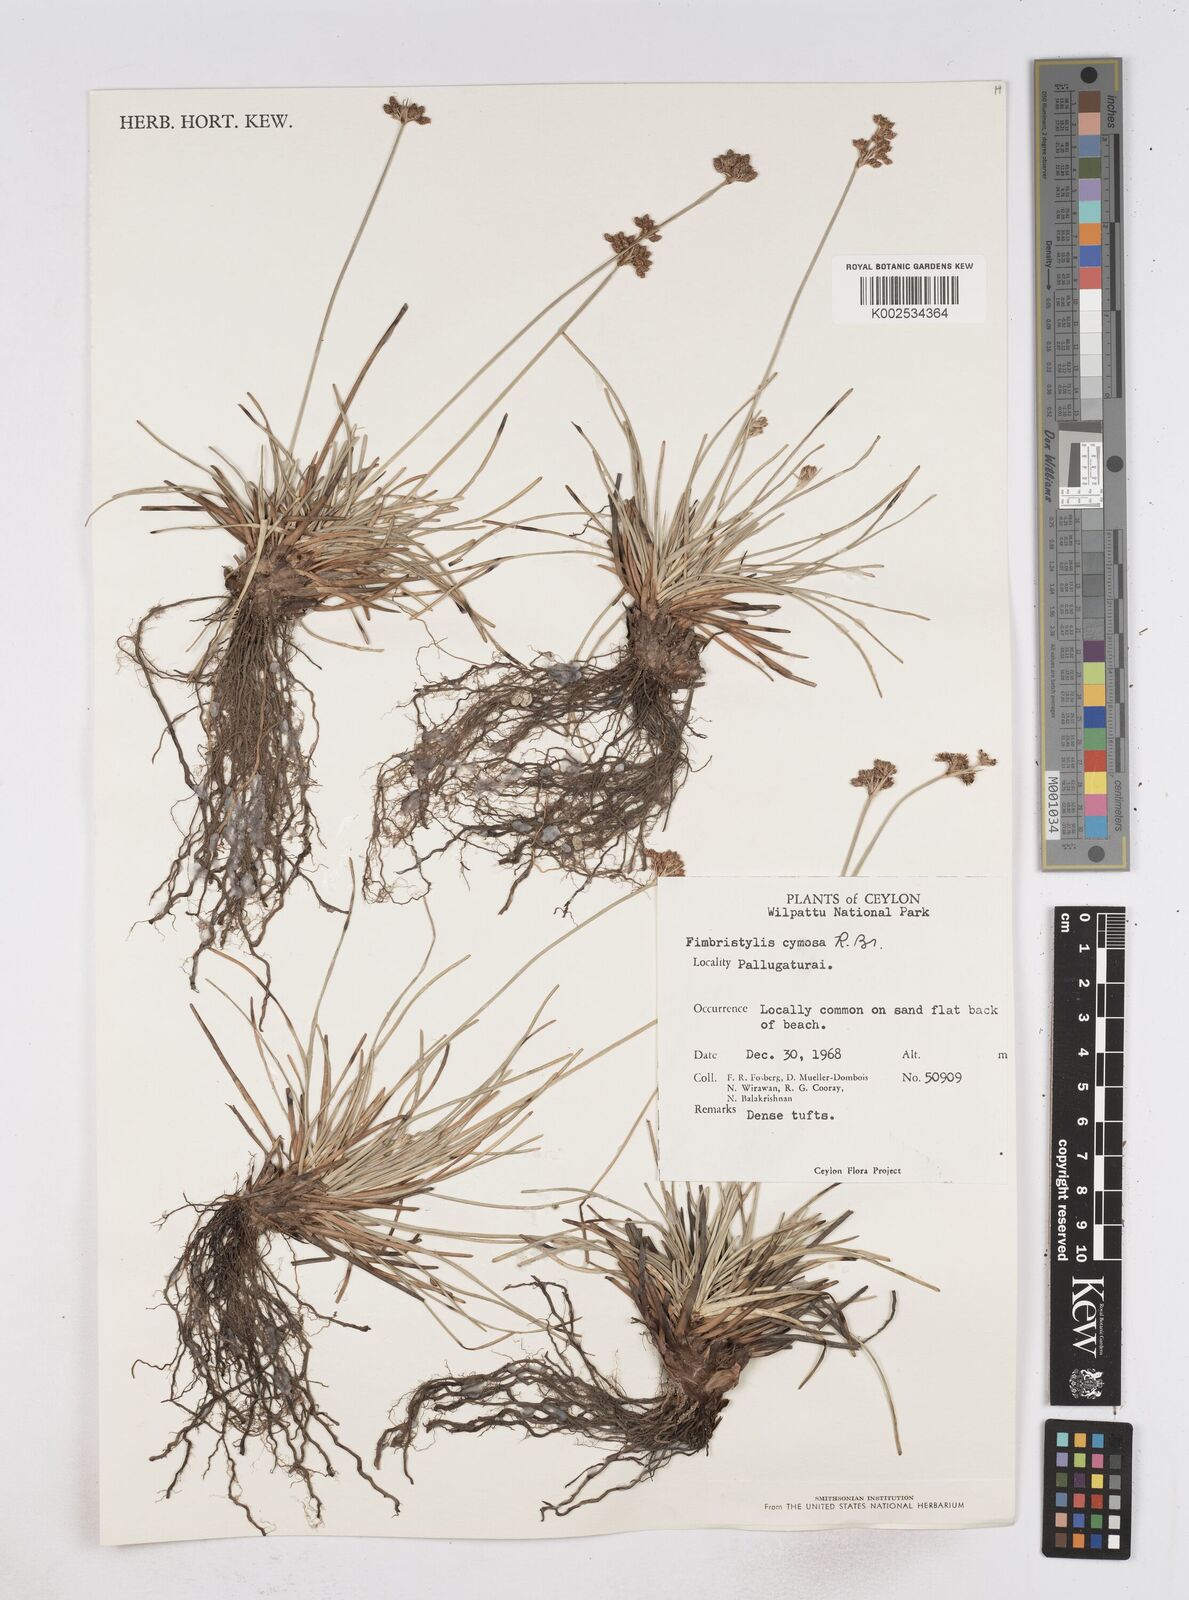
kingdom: Plantae
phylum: Tracheophyta
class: Liliopsida
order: Poales
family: Cyperaceae
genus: Fimbristylis
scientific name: Fimbristylis cymosa
